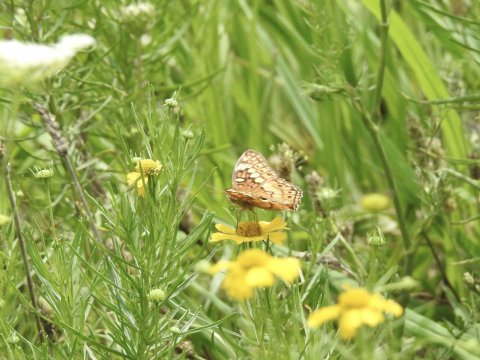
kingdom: Animalia
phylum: Arthropoda
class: Insecta
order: Lepidoptera
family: Nymphalidae
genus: Euptoieta
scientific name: Euptoieta claudia
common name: Variegated Fritillary
